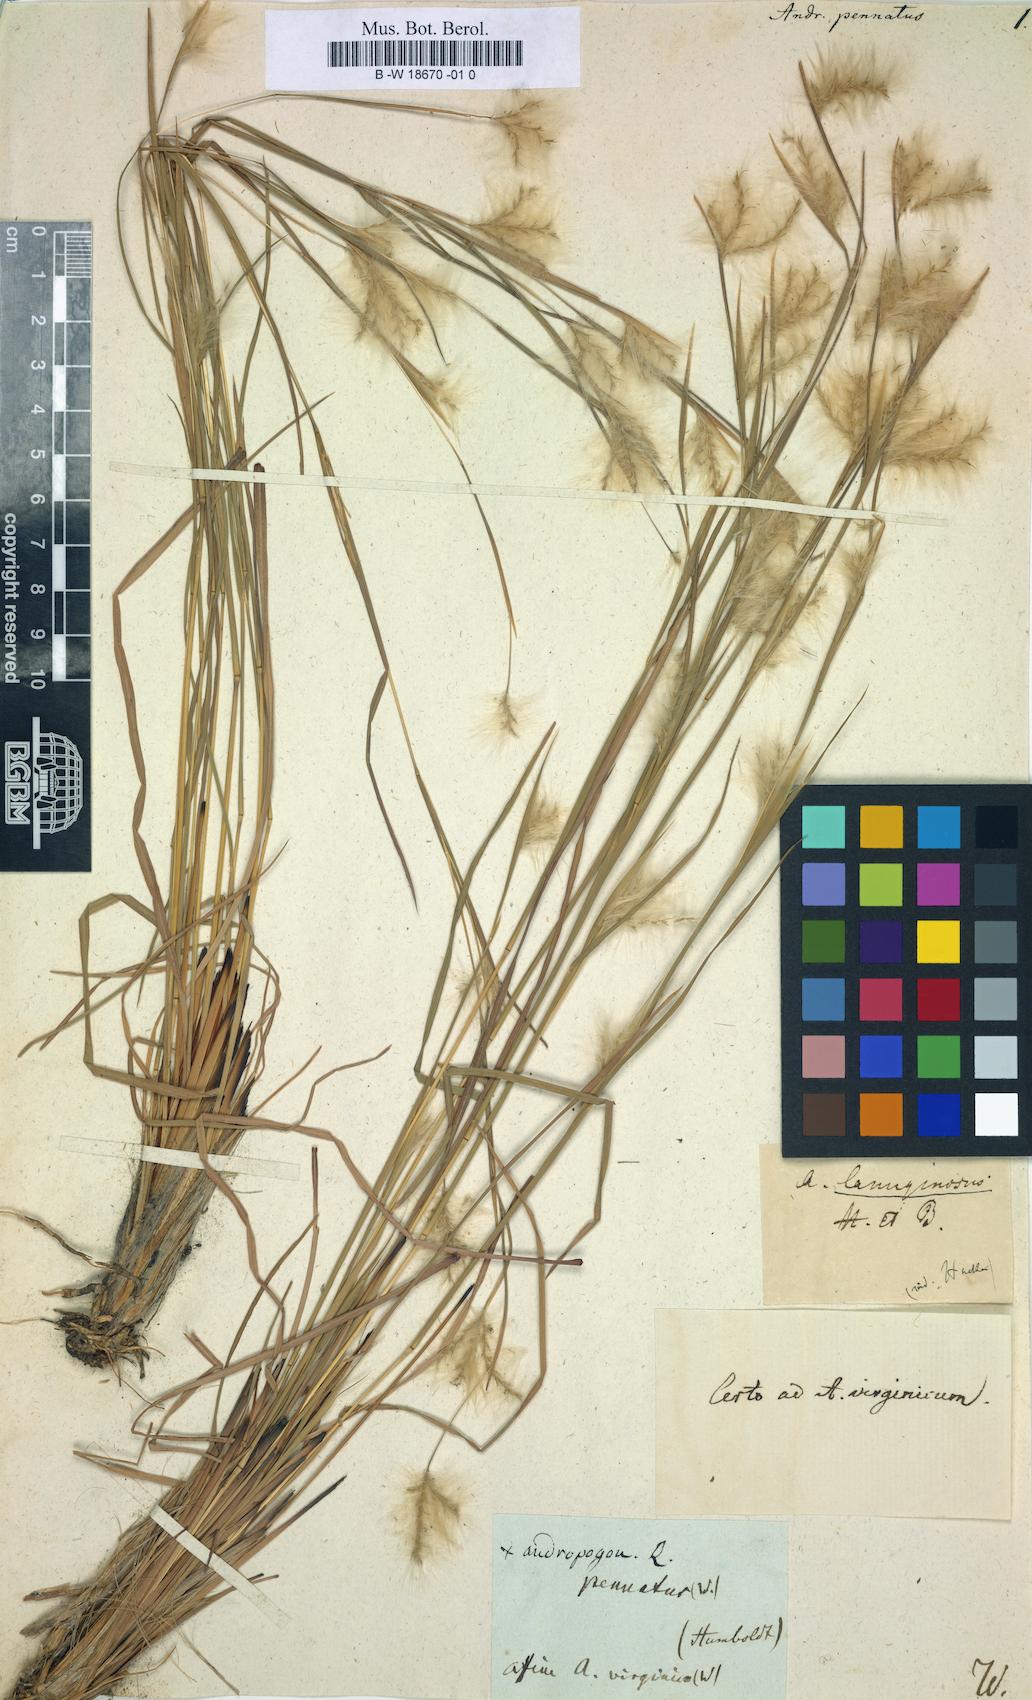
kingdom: Plantae
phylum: Tracheophyta
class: Liliopsida
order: Poales
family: Poaceae
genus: Andropogon
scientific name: Andropogon leucostachyus
